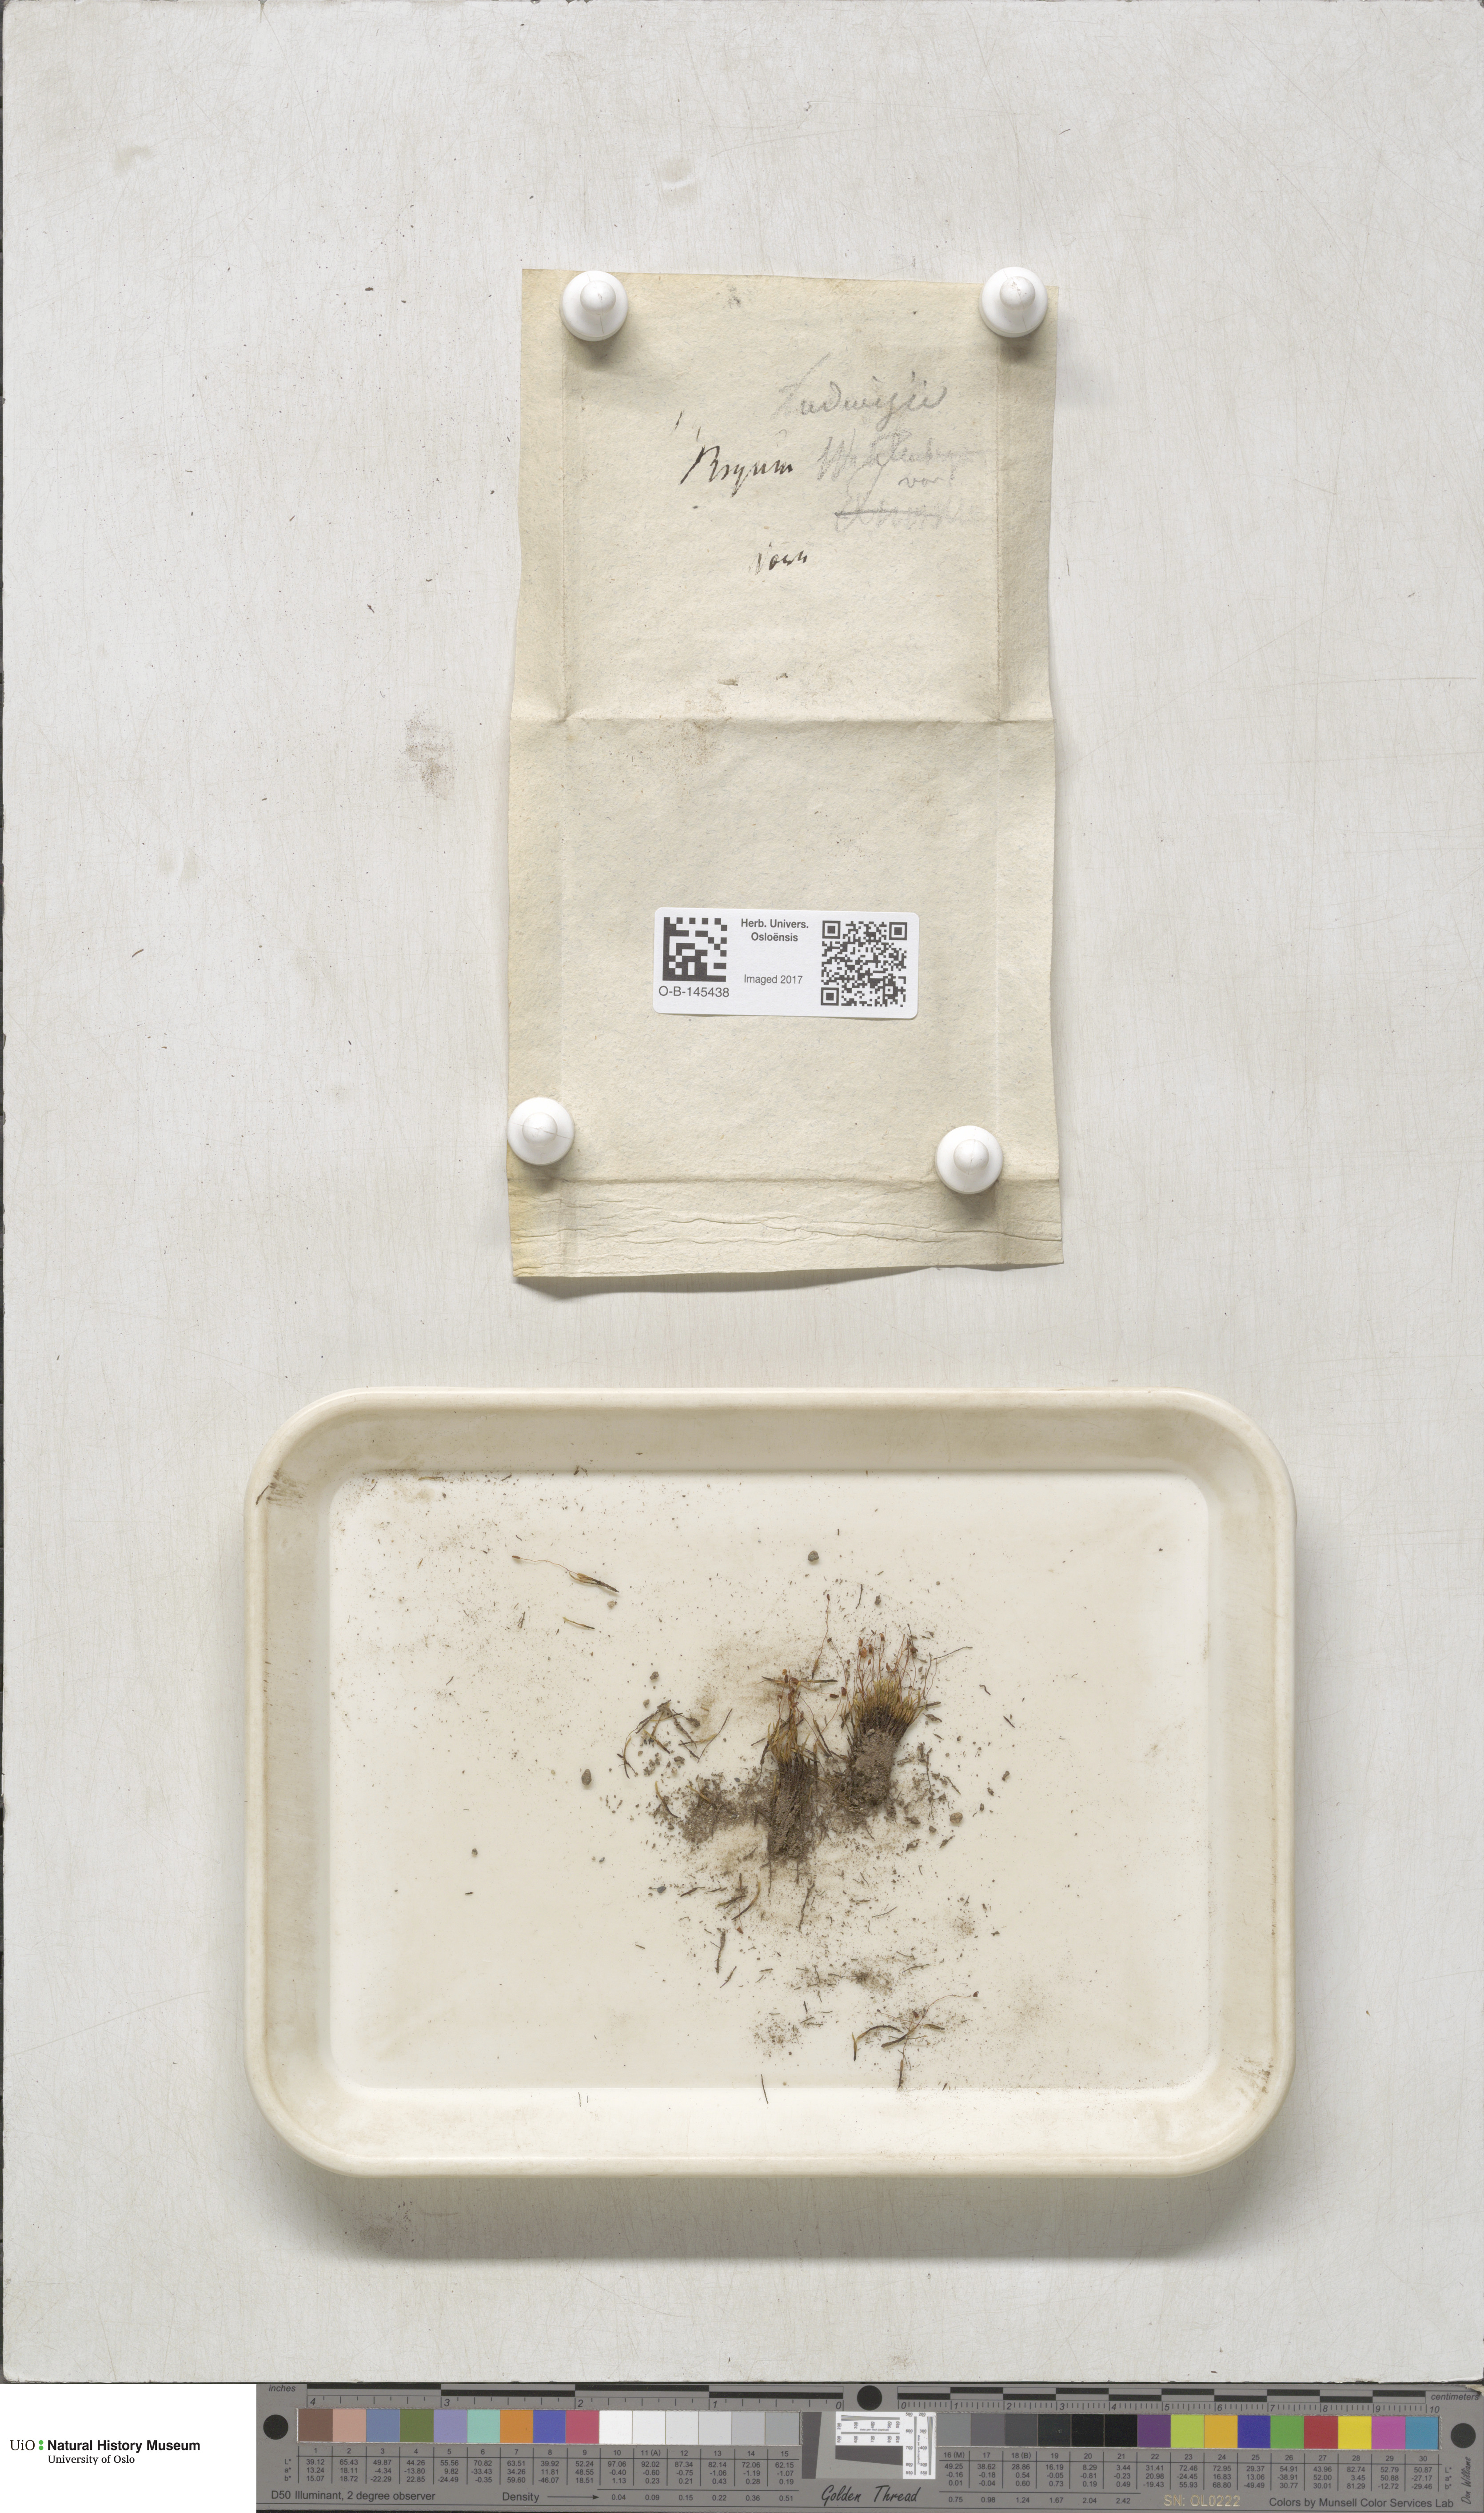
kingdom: Plantae
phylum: Bryophyta
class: Bryopsida
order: Bryales
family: Mniaceae
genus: Pohlia
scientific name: Pohlia ludwigii
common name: Ludwig's thread-moss
